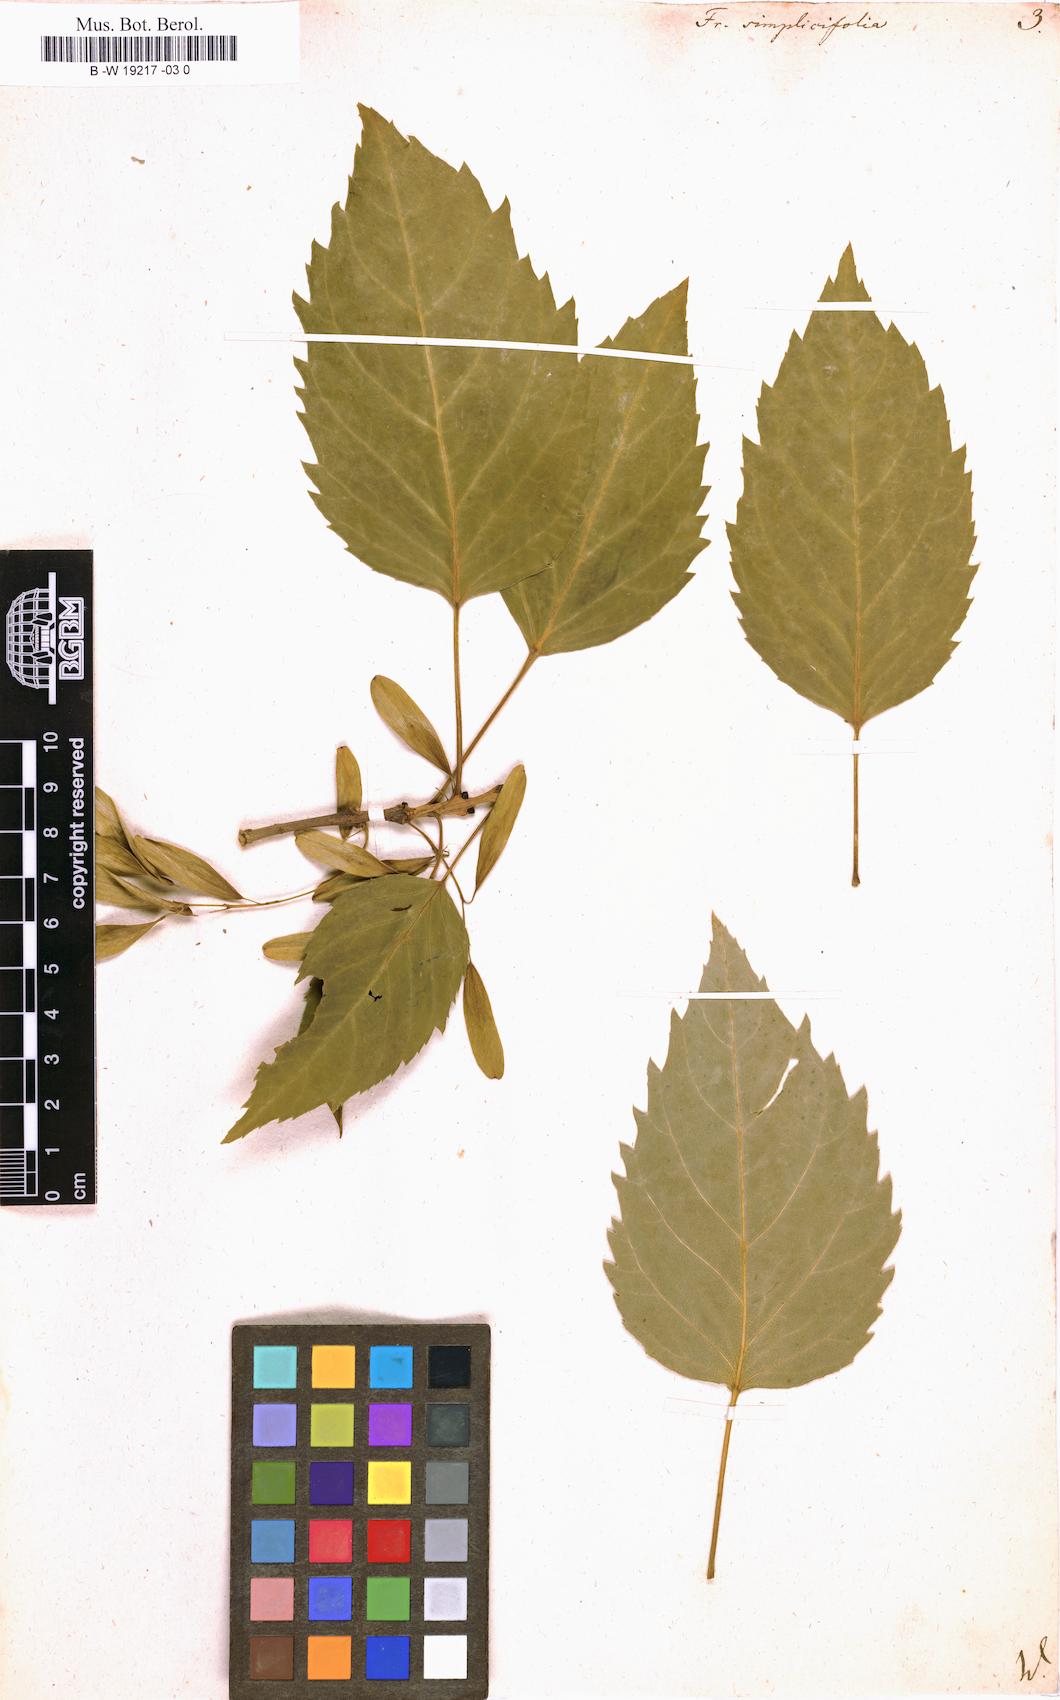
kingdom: Plantae
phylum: Tracheophyta
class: Magnoliopsida
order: Lamiales
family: Oleaceae
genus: Fraxinus
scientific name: Fraxinus excelsior
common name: European ash
